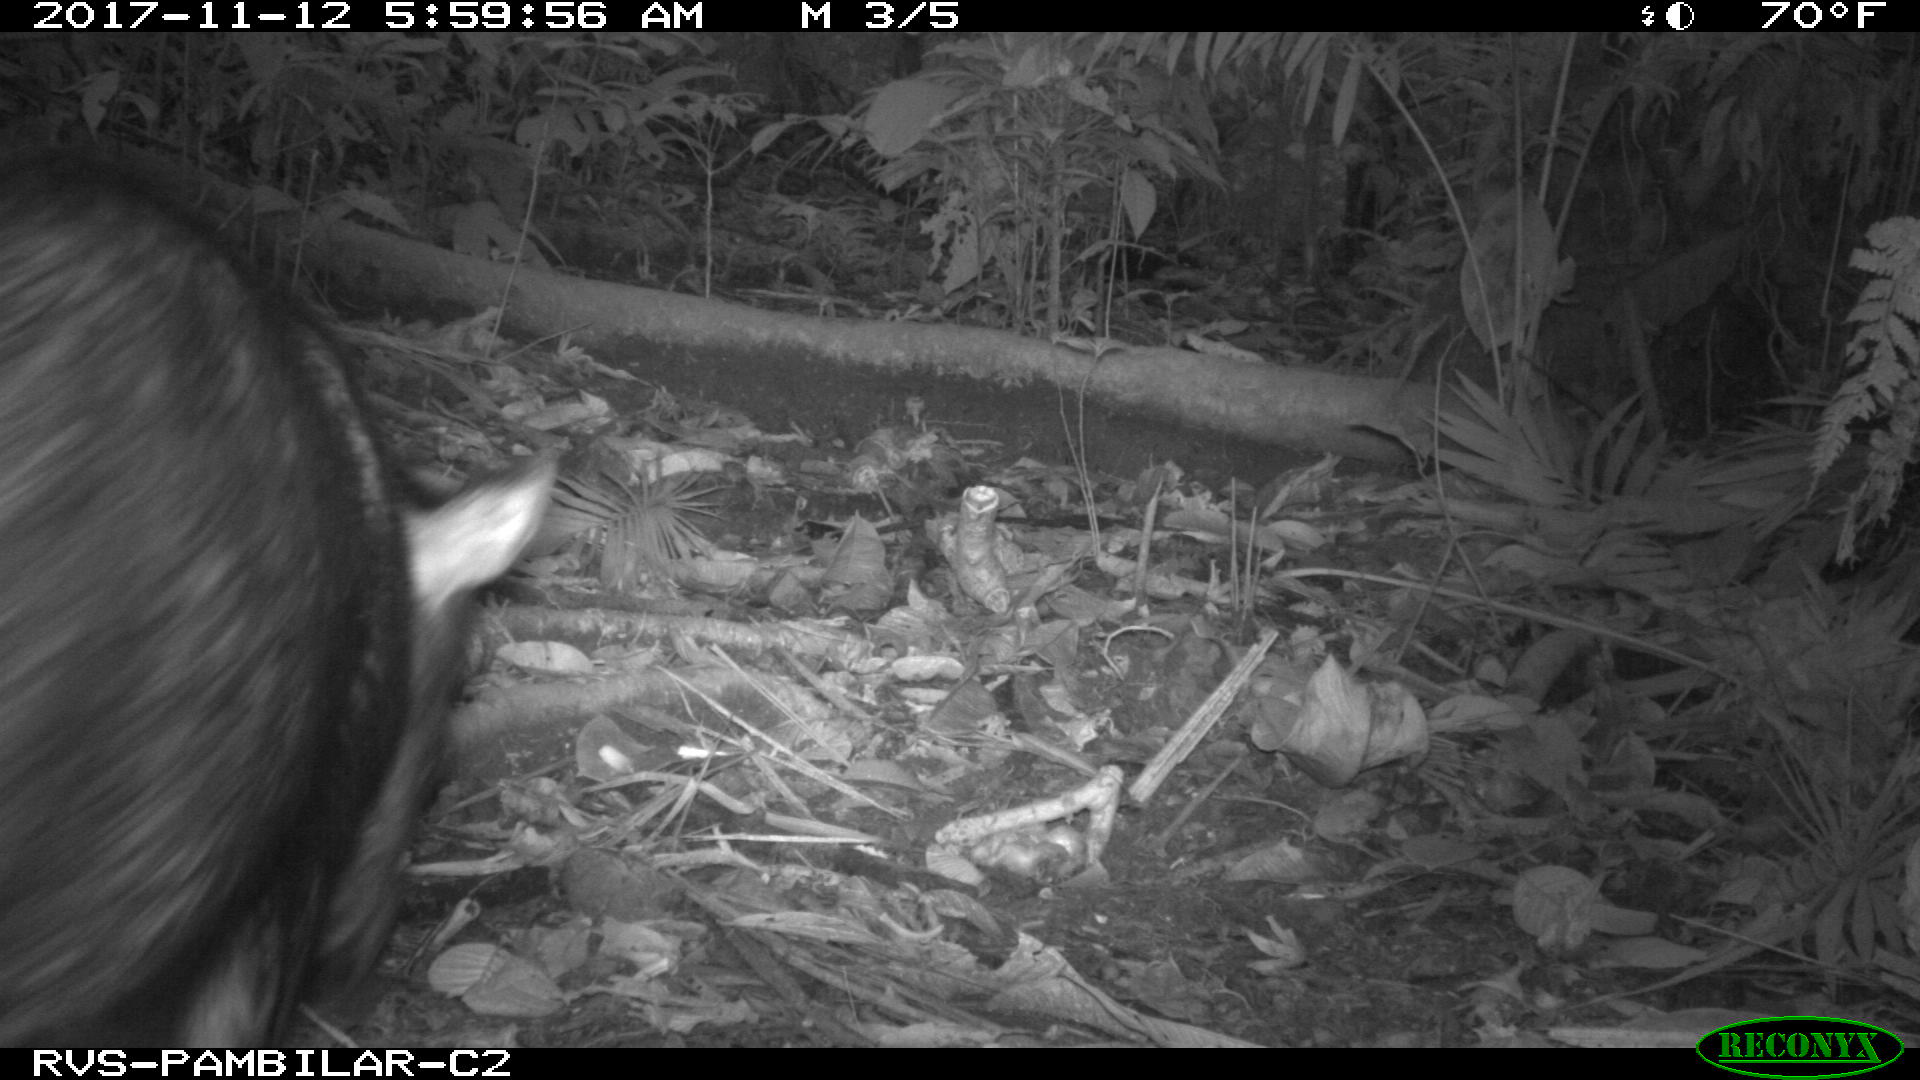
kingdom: Animalia
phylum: Chordata
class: Mammalia
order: Artiodactyla
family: Tayassuidae
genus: Pecari
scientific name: Pecari tajacu
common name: Collared peccary
